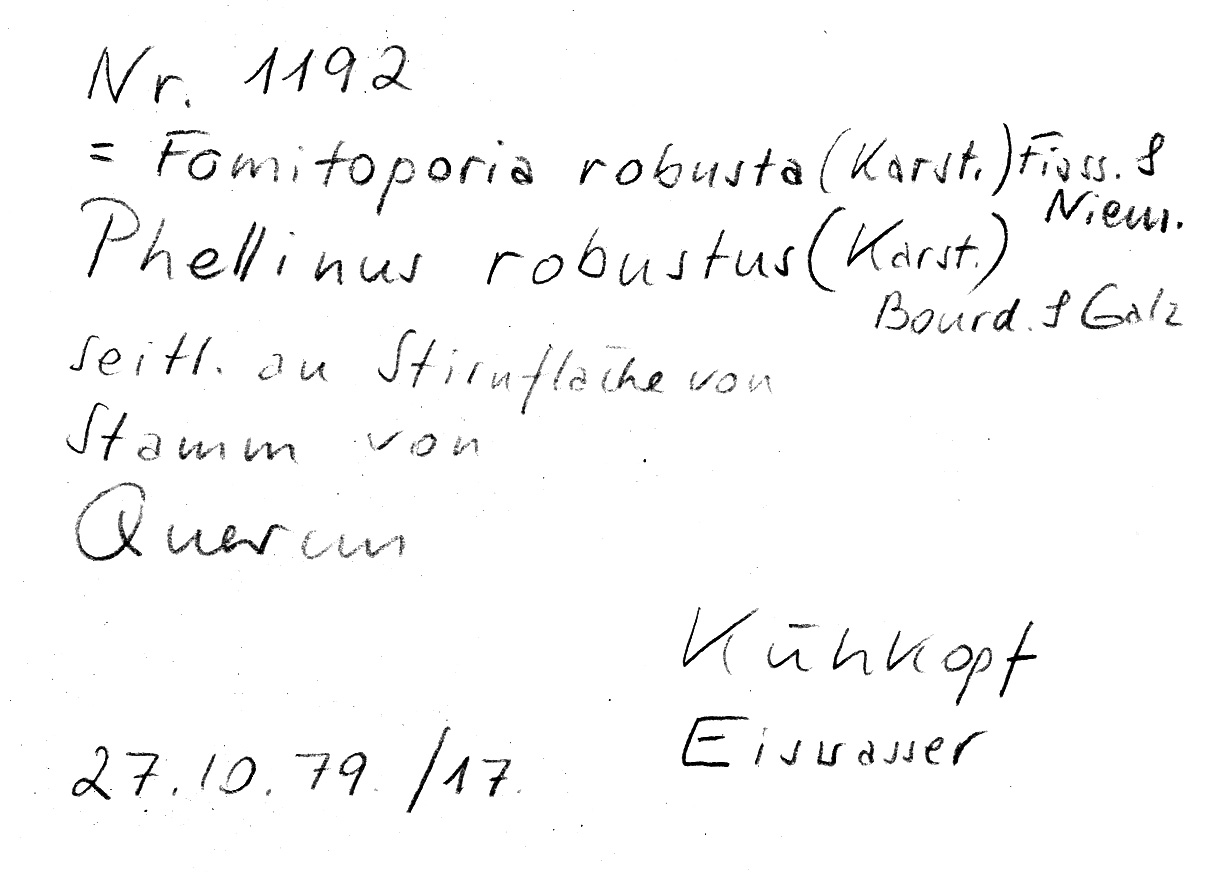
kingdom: Fungi
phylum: Basidiomycota
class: Agaricomycetes
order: Hymenochaetales
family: Hymenochaetaceae
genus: Fomitiporia
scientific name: Fomitiporia robusta
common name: Robust bracket
